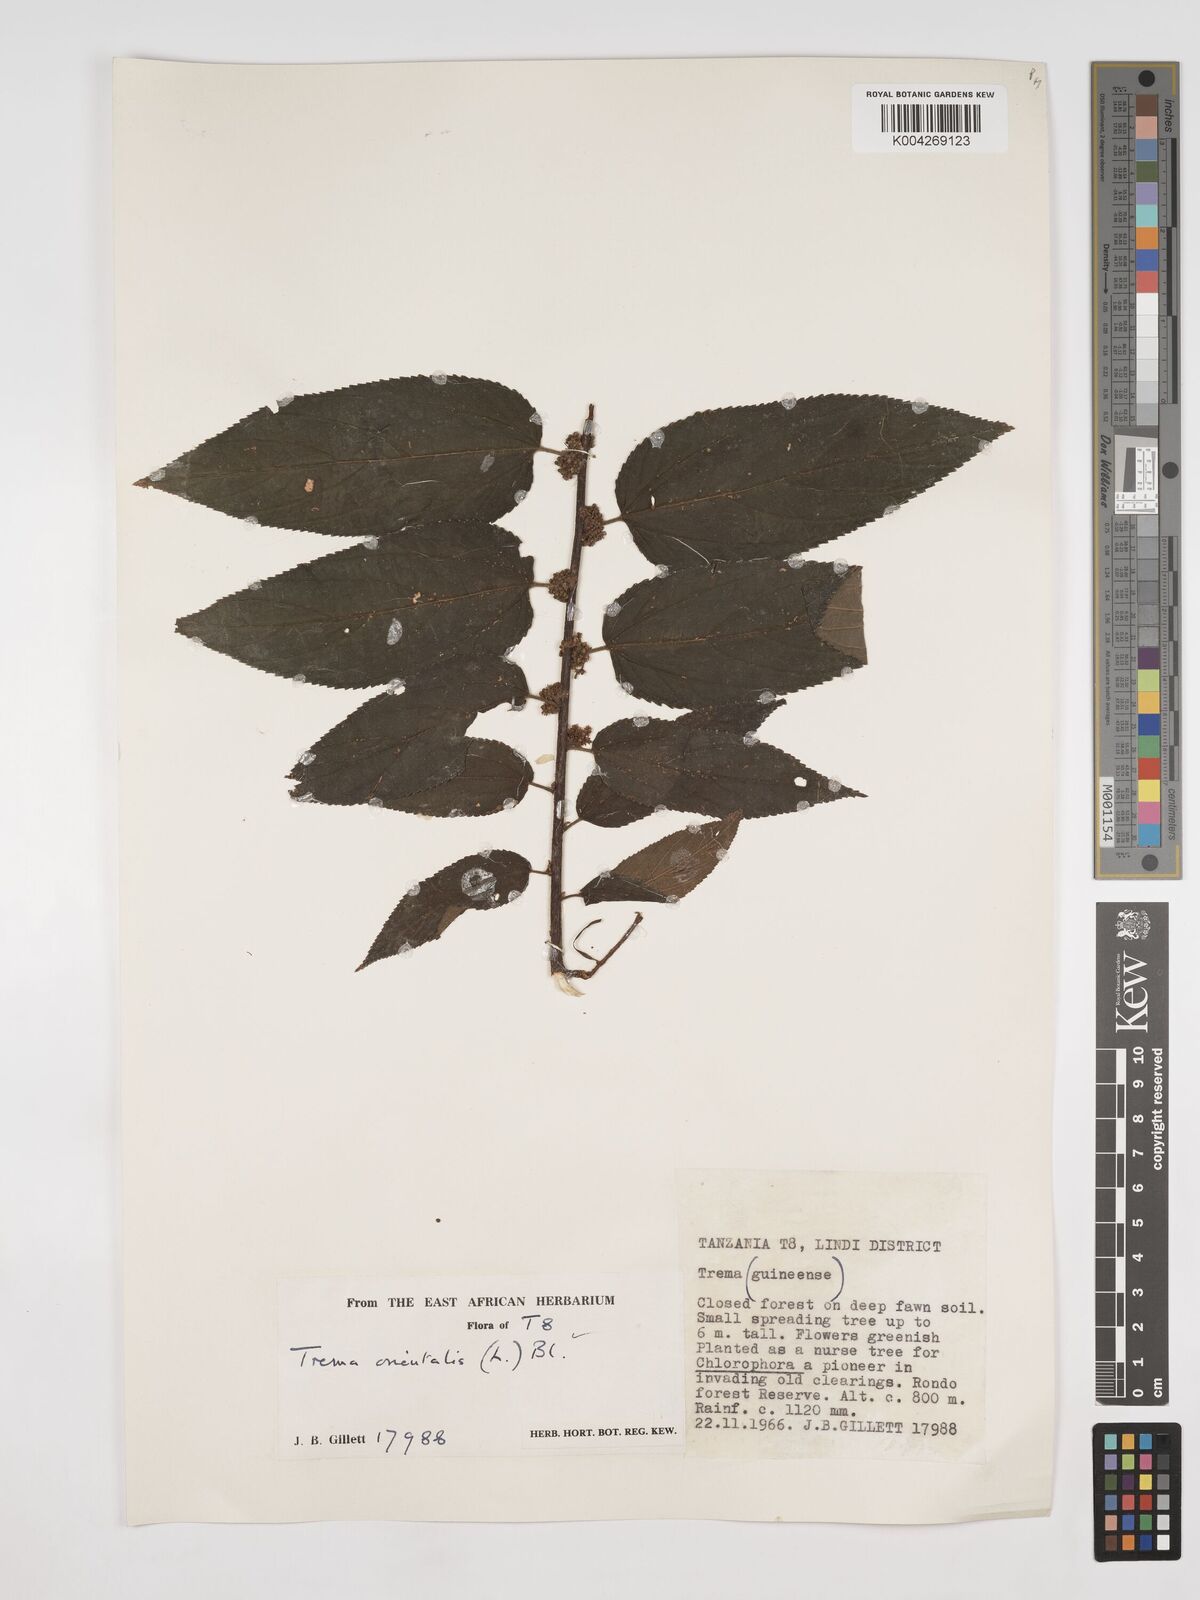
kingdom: Plantae
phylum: Tracheophyta
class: Magnoliopsida
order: Rosales
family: Cannabaceae
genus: Trema
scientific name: Trema orientale
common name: Indian charcoal tree
